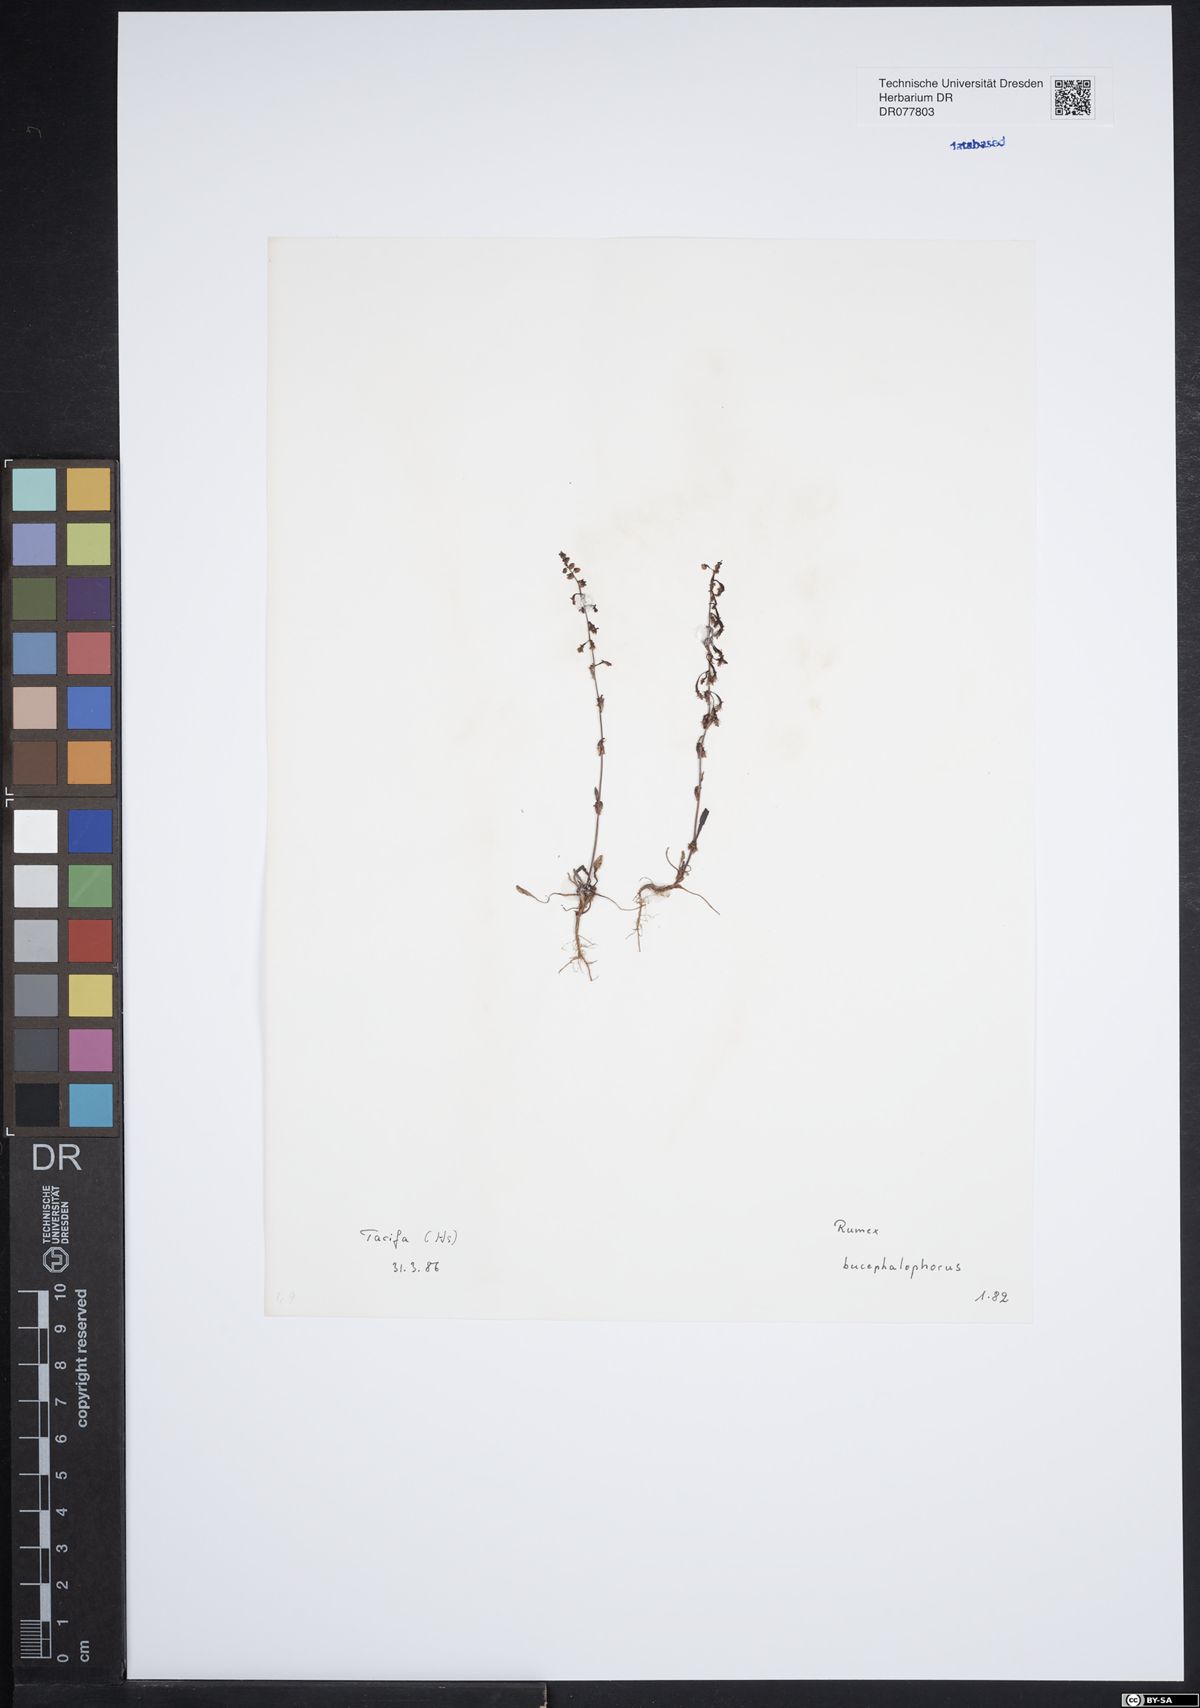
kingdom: Plantae
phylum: Tracheophyta
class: Magnoliopsida
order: Caryophyllales
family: Polygonaceae
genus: Rumex
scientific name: Rumex bucephalophorus
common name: Red dock
